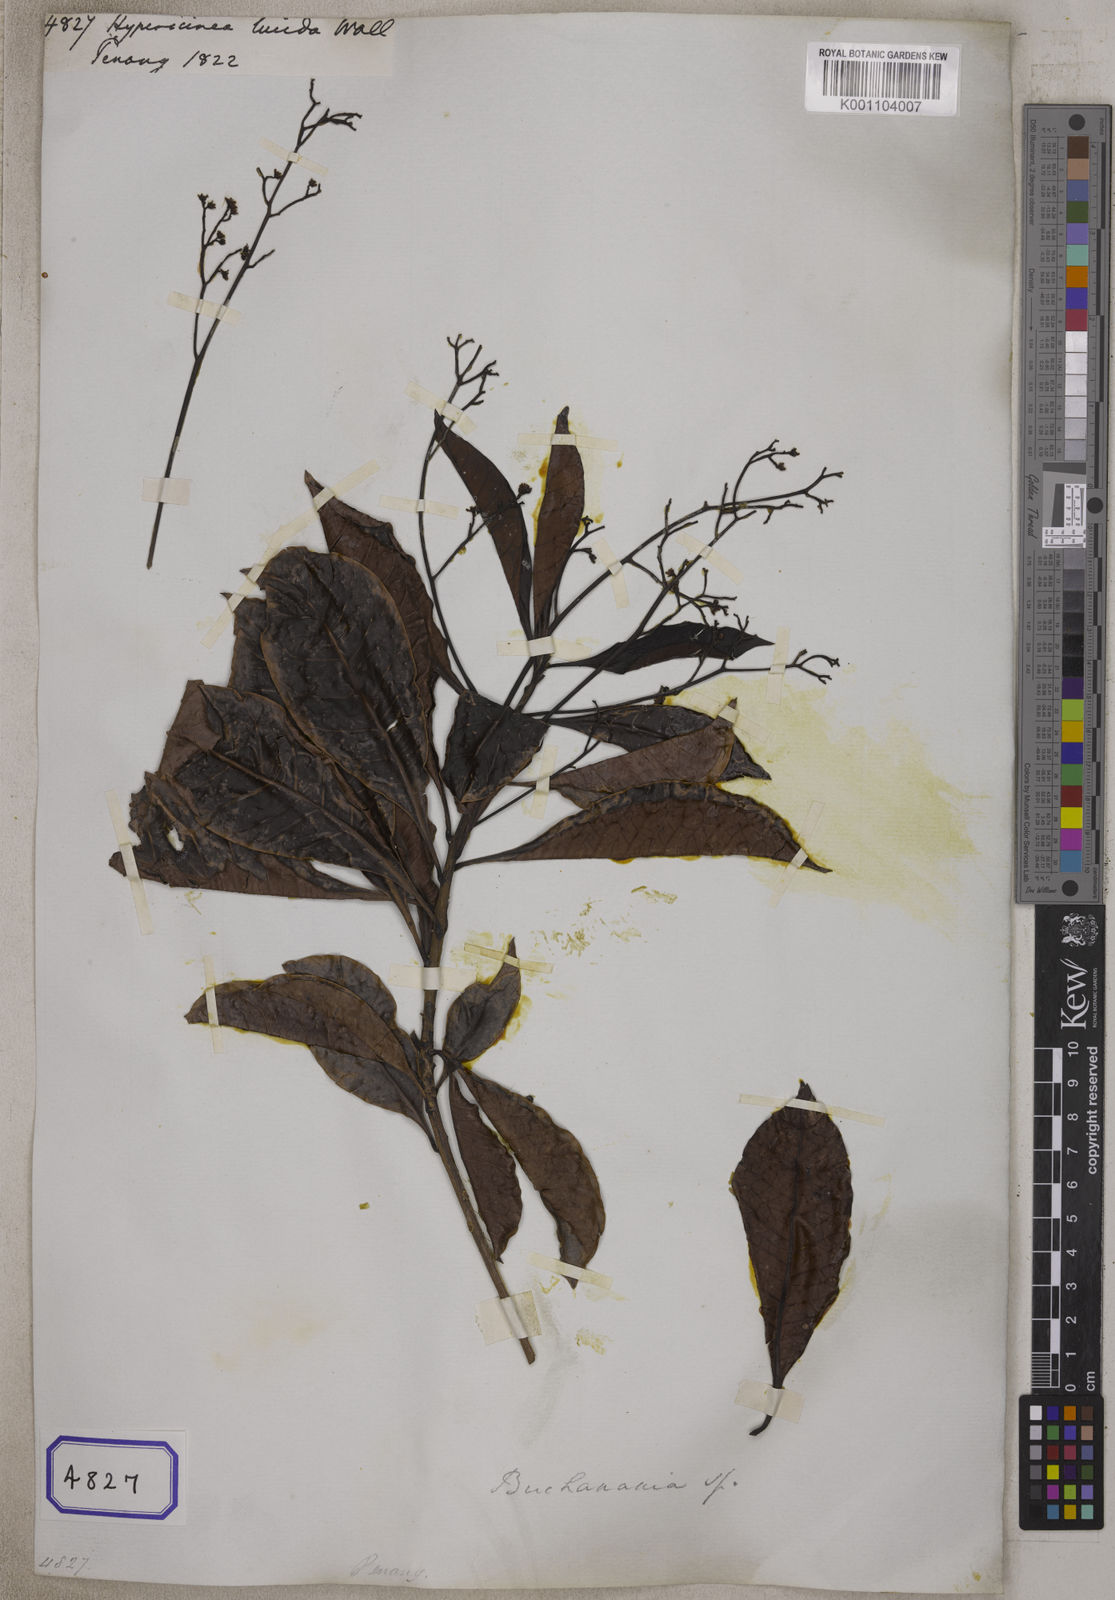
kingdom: Plantae
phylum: Tracheophyta
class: Magnoliopsida
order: Sapindales
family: Anacardiaceae
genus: Buchanania
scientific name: Buchanania sessilifolia
